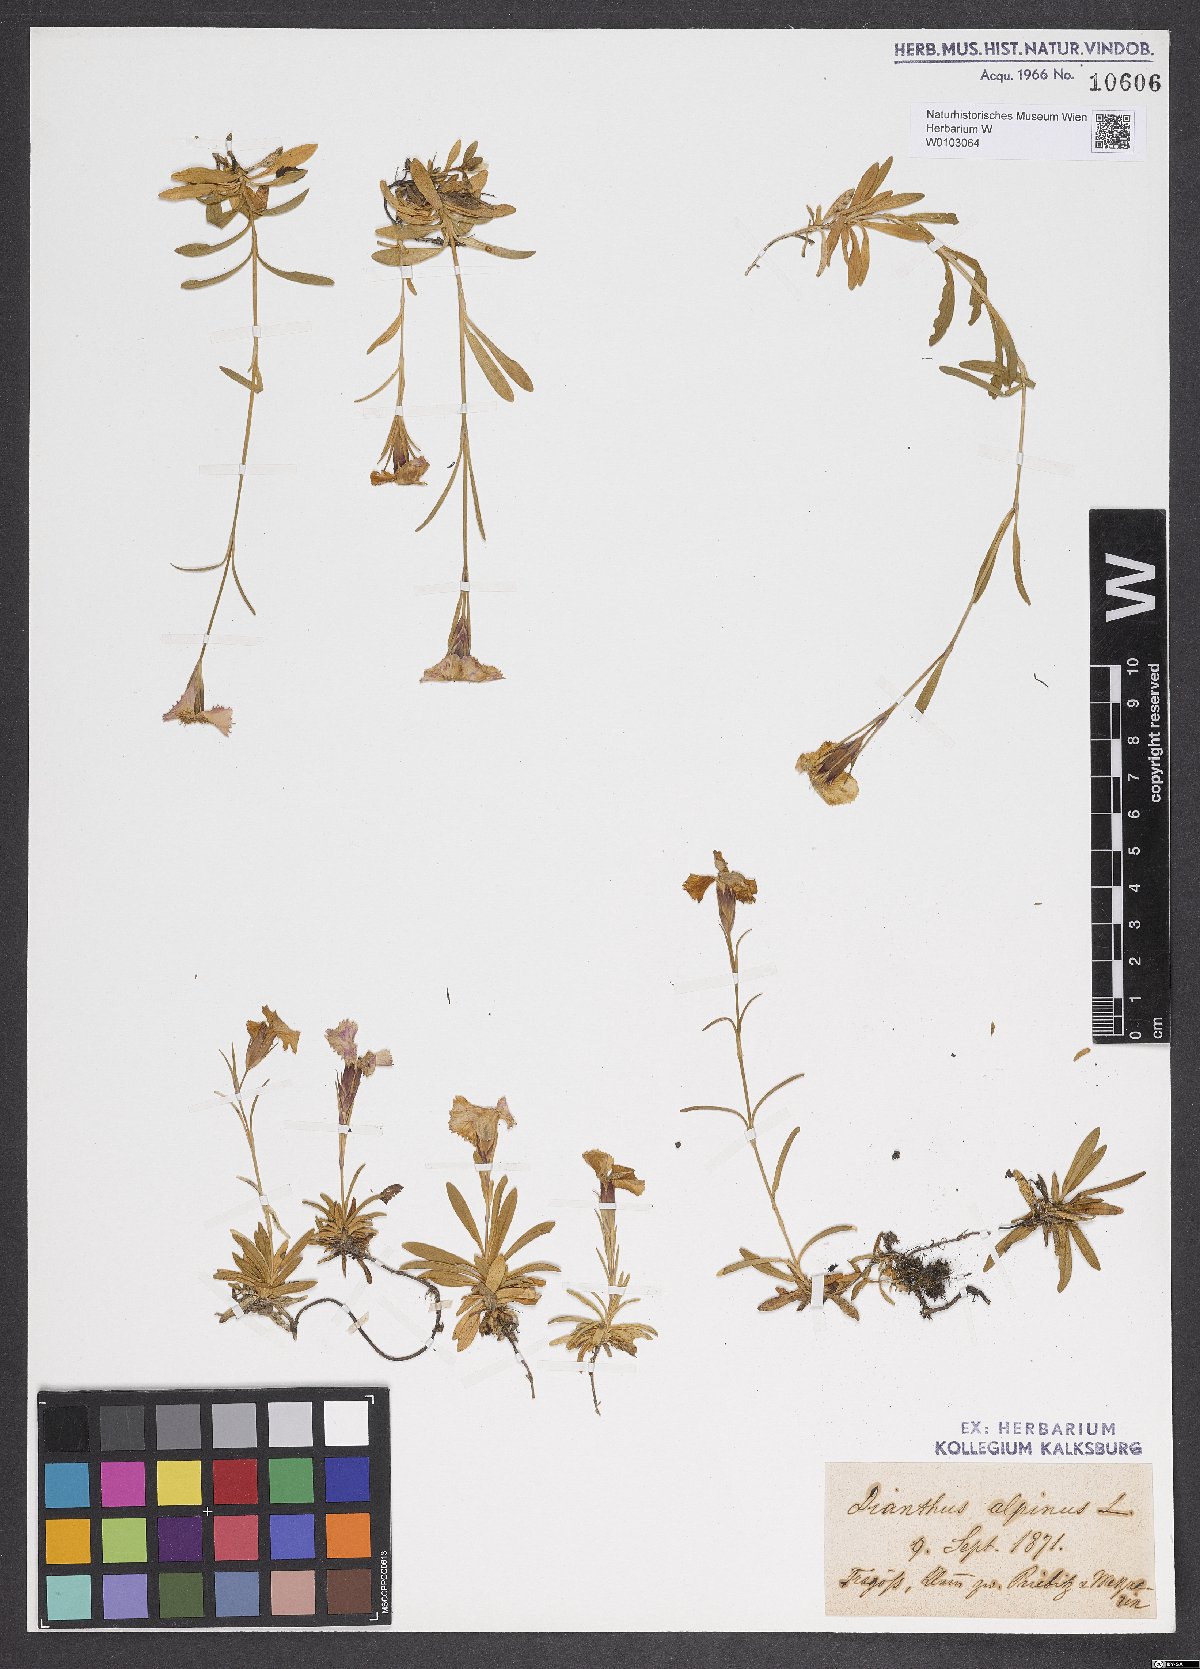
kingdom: Plantae
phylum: Tracheophyta
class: Magnoliopsida
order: Caryophyllales
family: Caryophyllaceae
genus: Dianthus
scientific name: Dianthus alpinus
